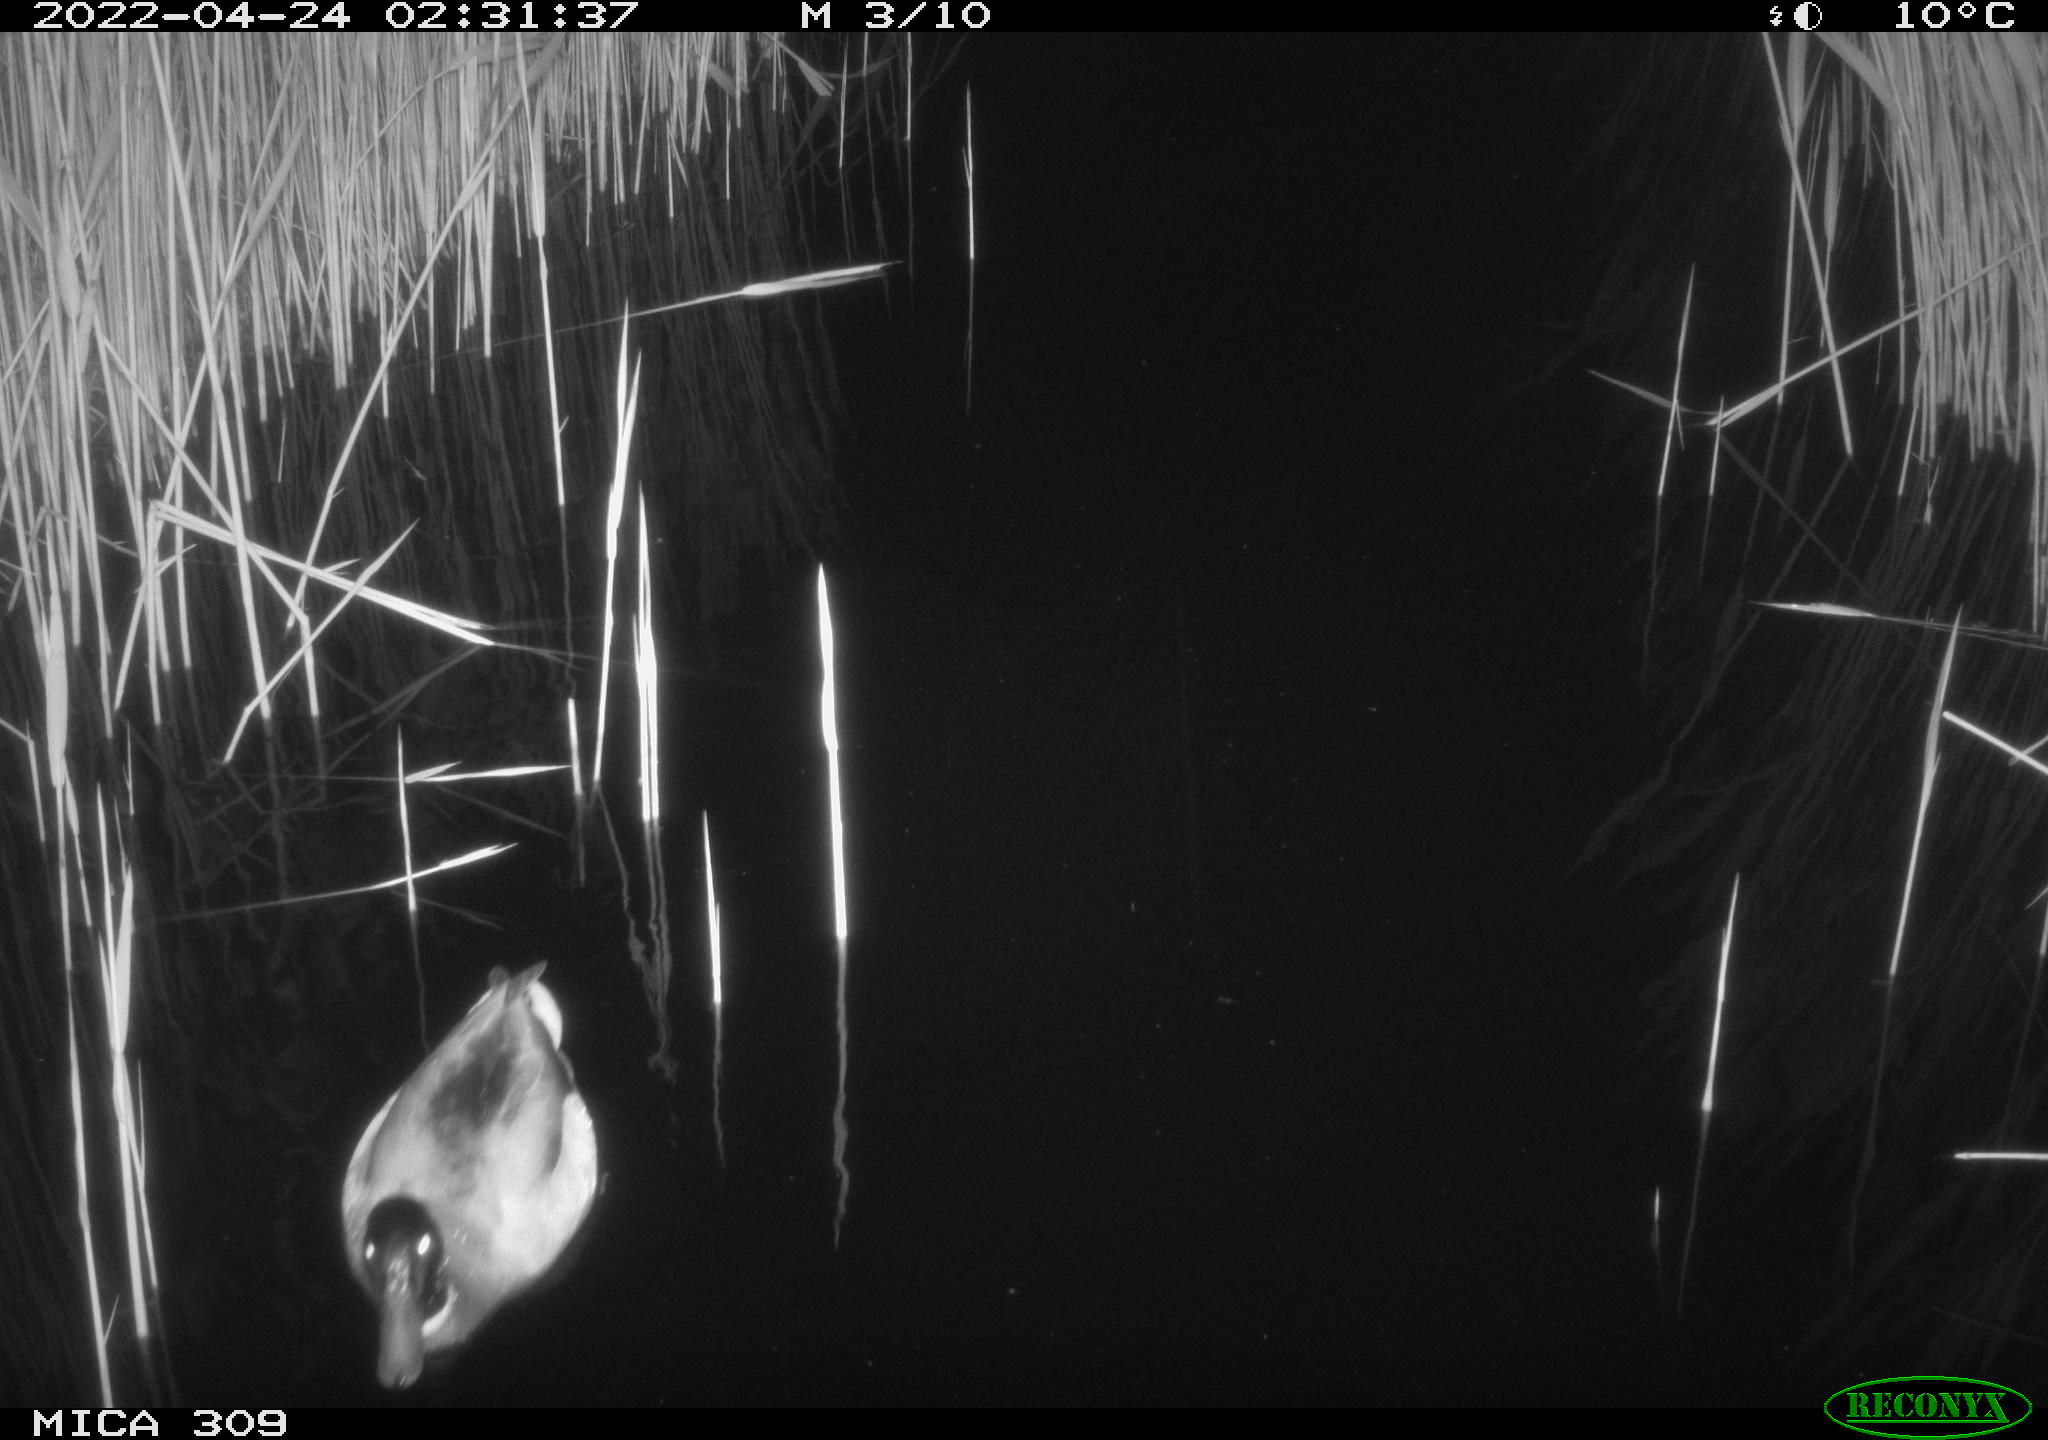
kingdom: Animalia
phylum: Chordata
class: Aves
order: Anseriformes
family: Anatidae
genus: Anas
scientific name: Anas platyrhynchos
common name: Mallard
